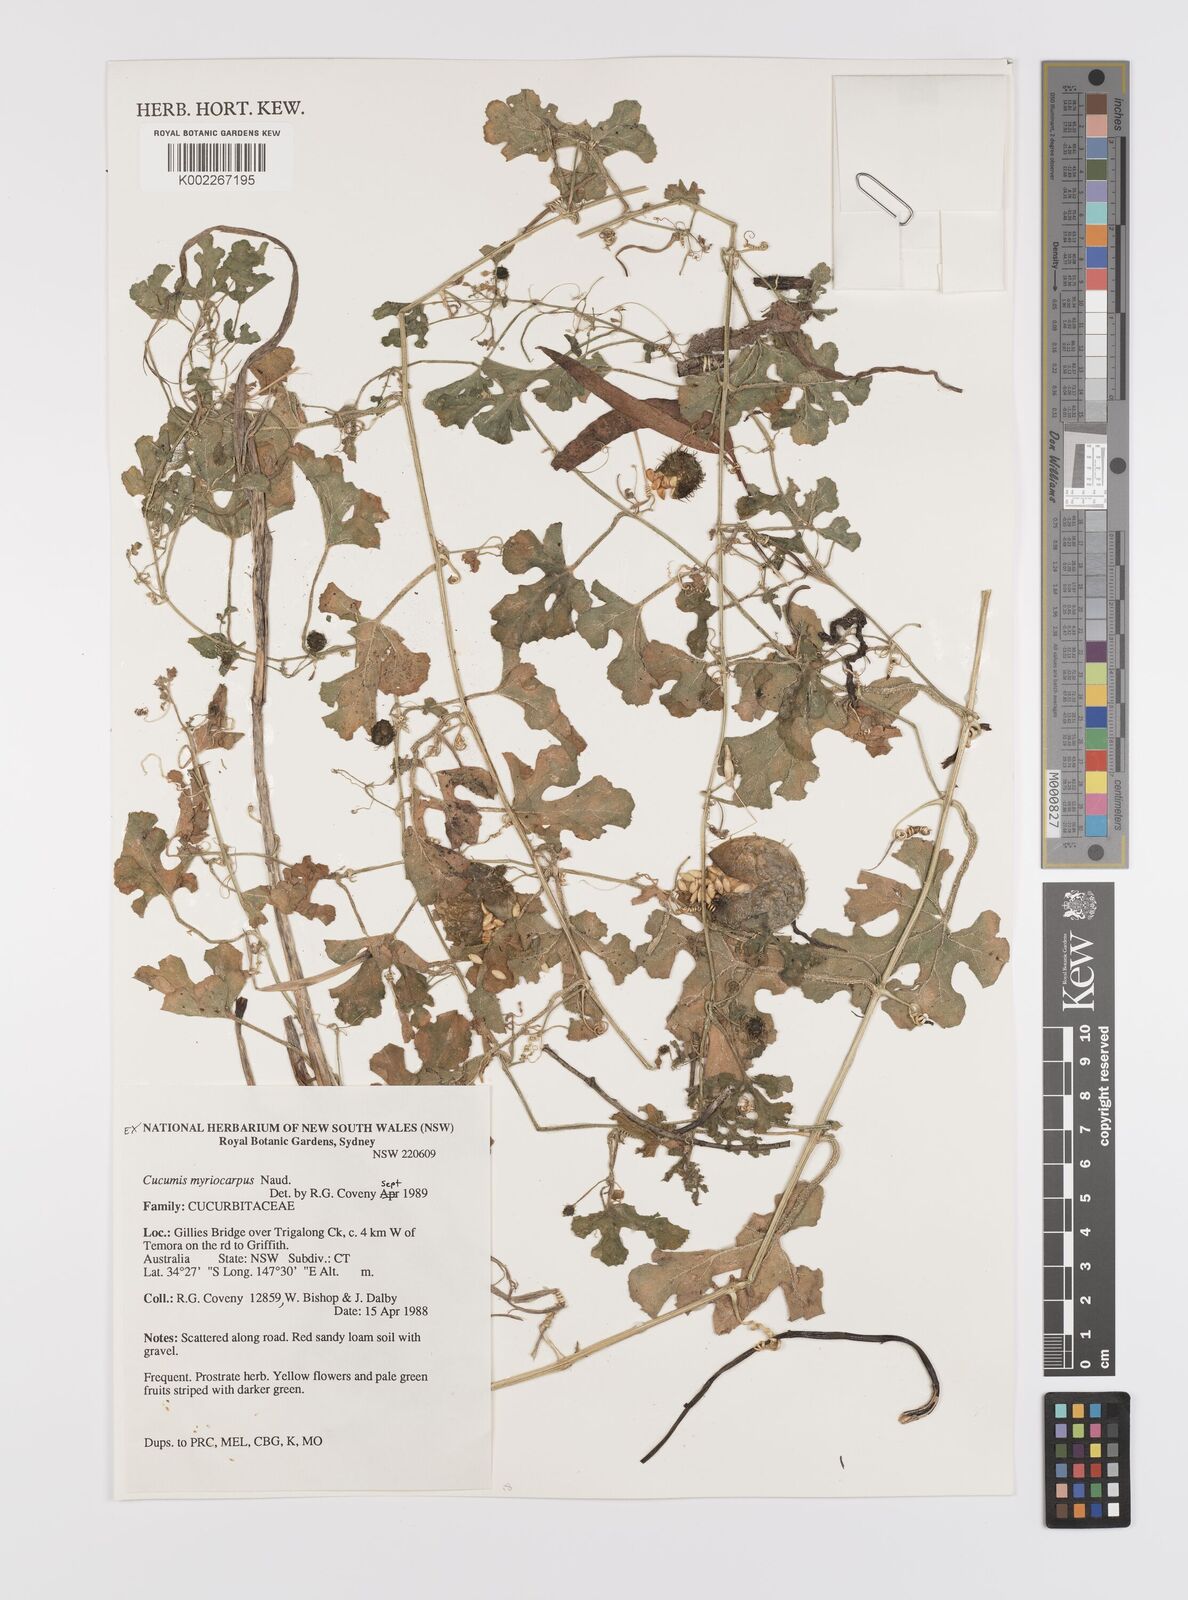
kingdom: Plantae
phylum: Tracheophyta
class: Magnoliopsida
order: Cucurbitales
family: Cucurbitaceae
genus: Cucumis
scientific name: Cucumis myriocarpus
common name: Gooseberry cucumber
